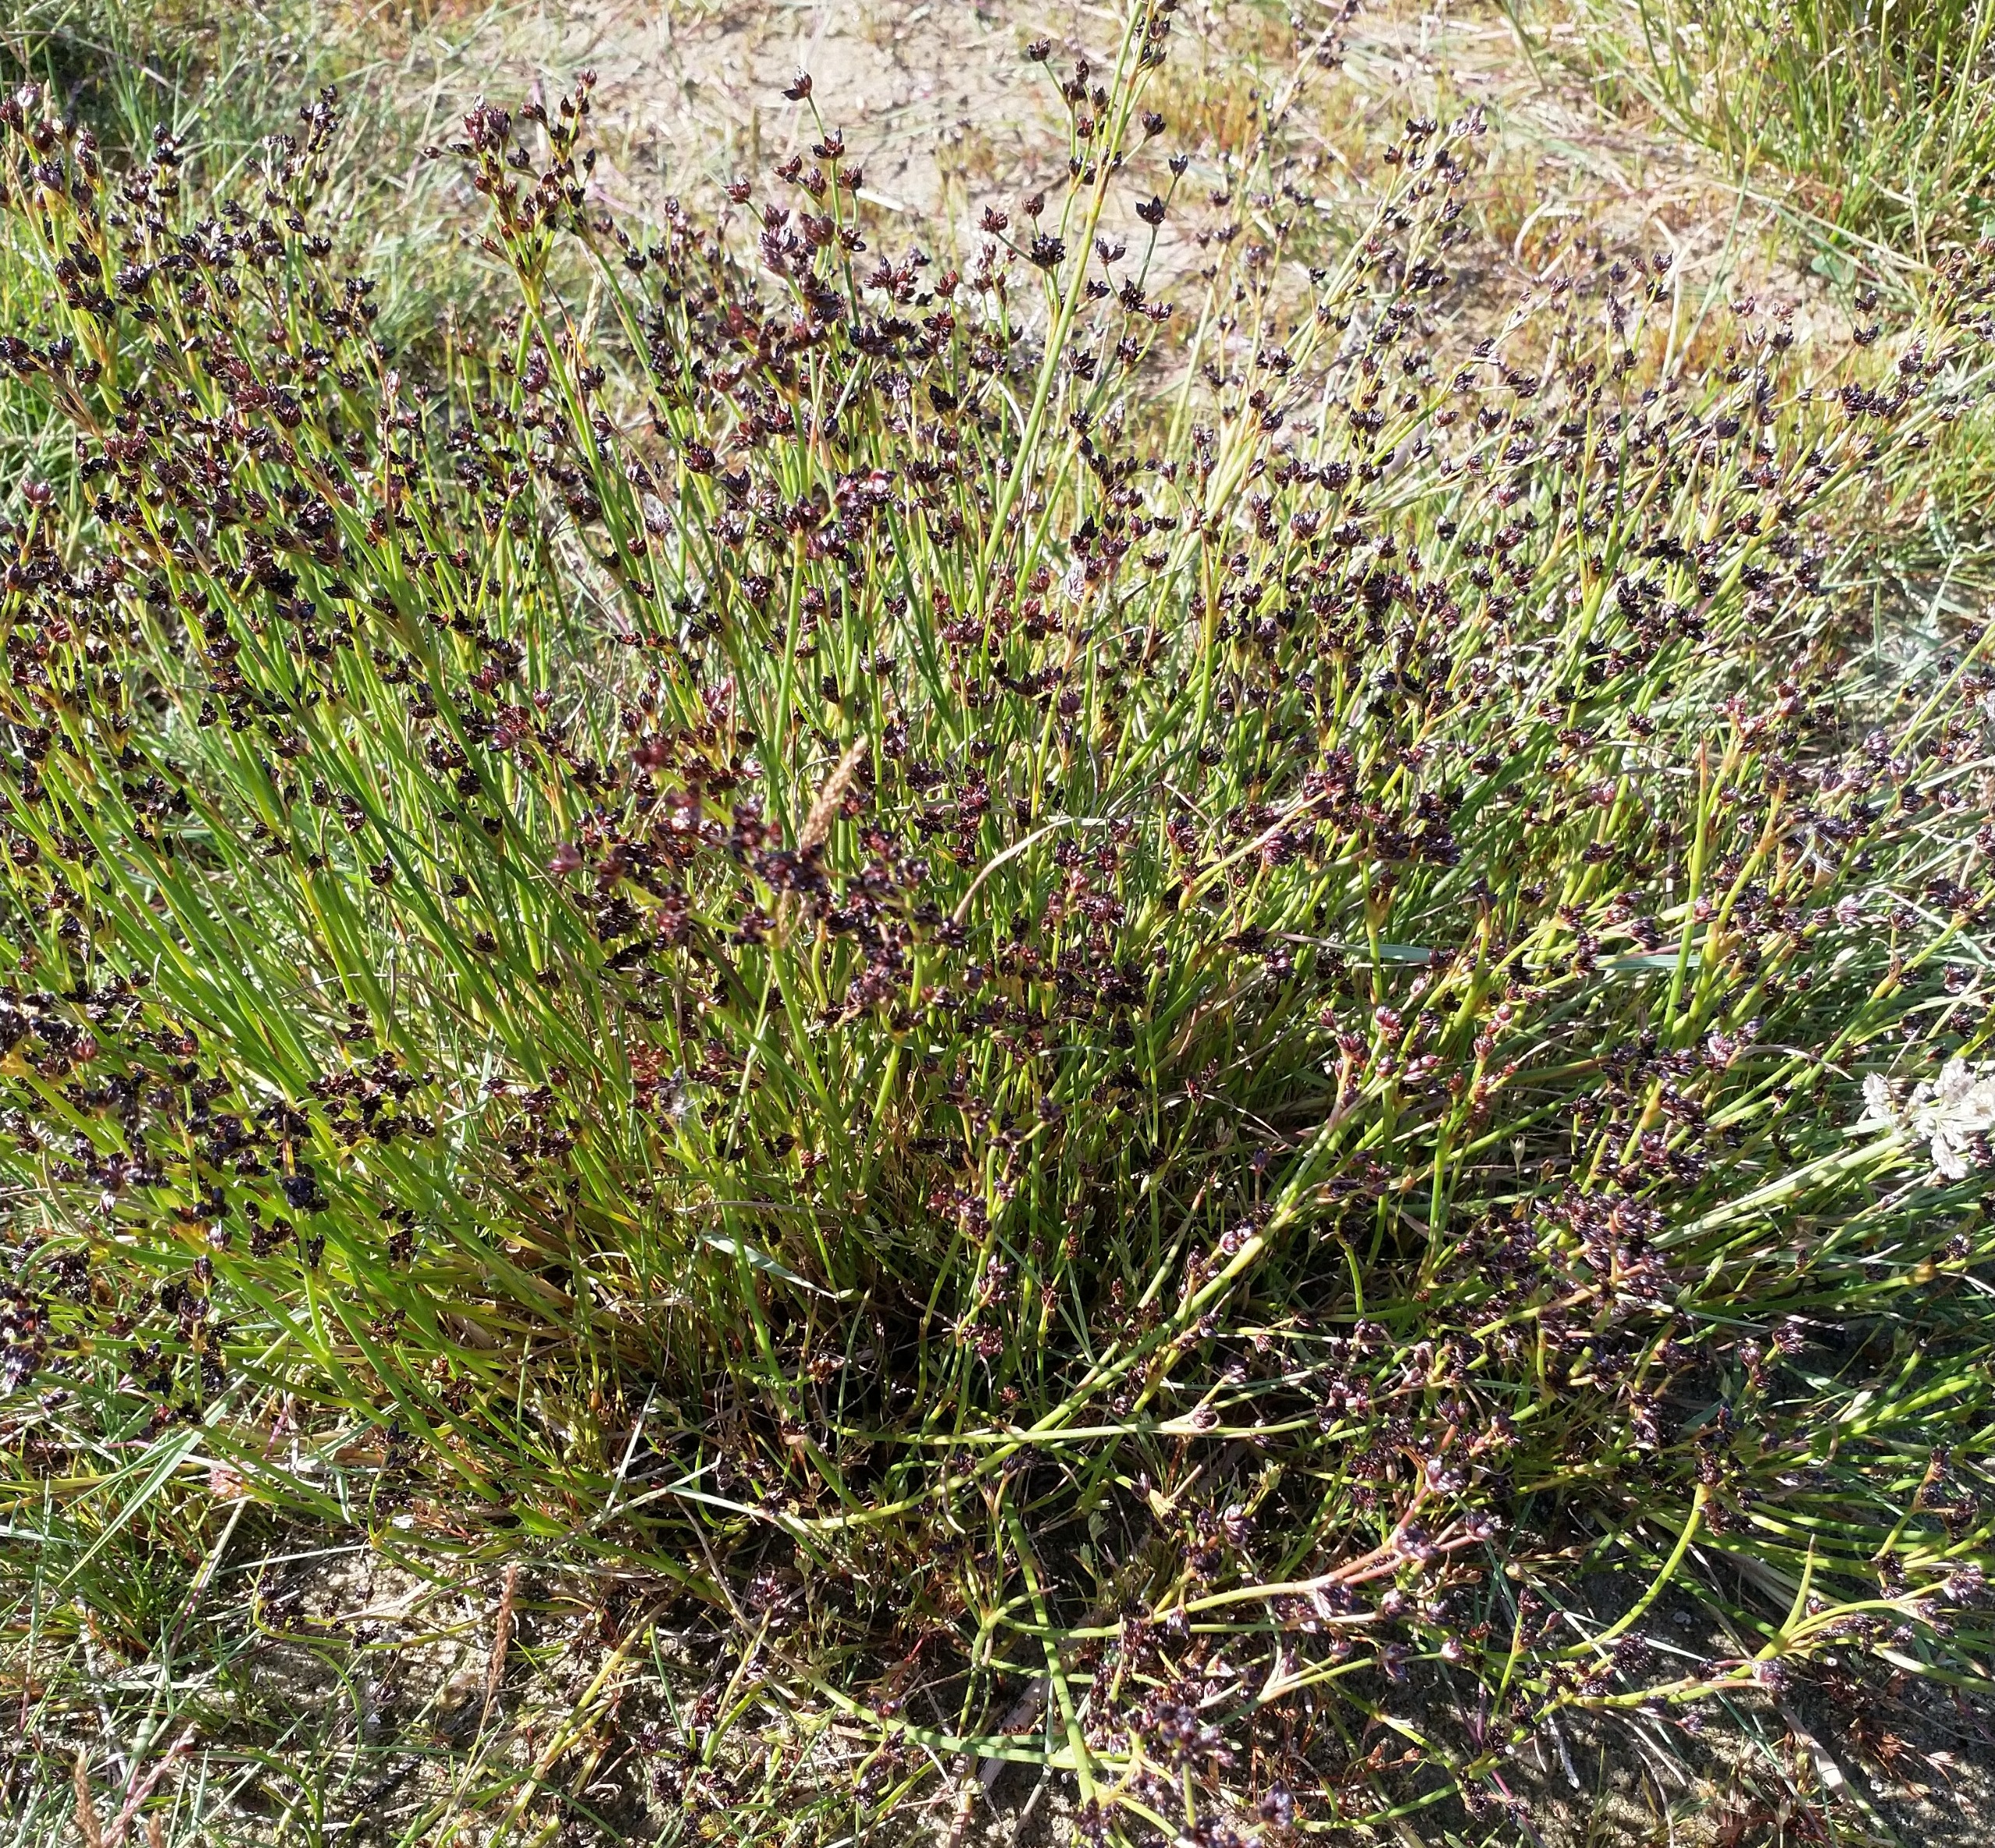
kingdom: Plantae
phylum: Tracheophyta
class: Liliopsida
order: Poales
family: Juncaceae
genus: Juncus
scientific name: Juncus articulatus
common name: Glanskapslet siv
